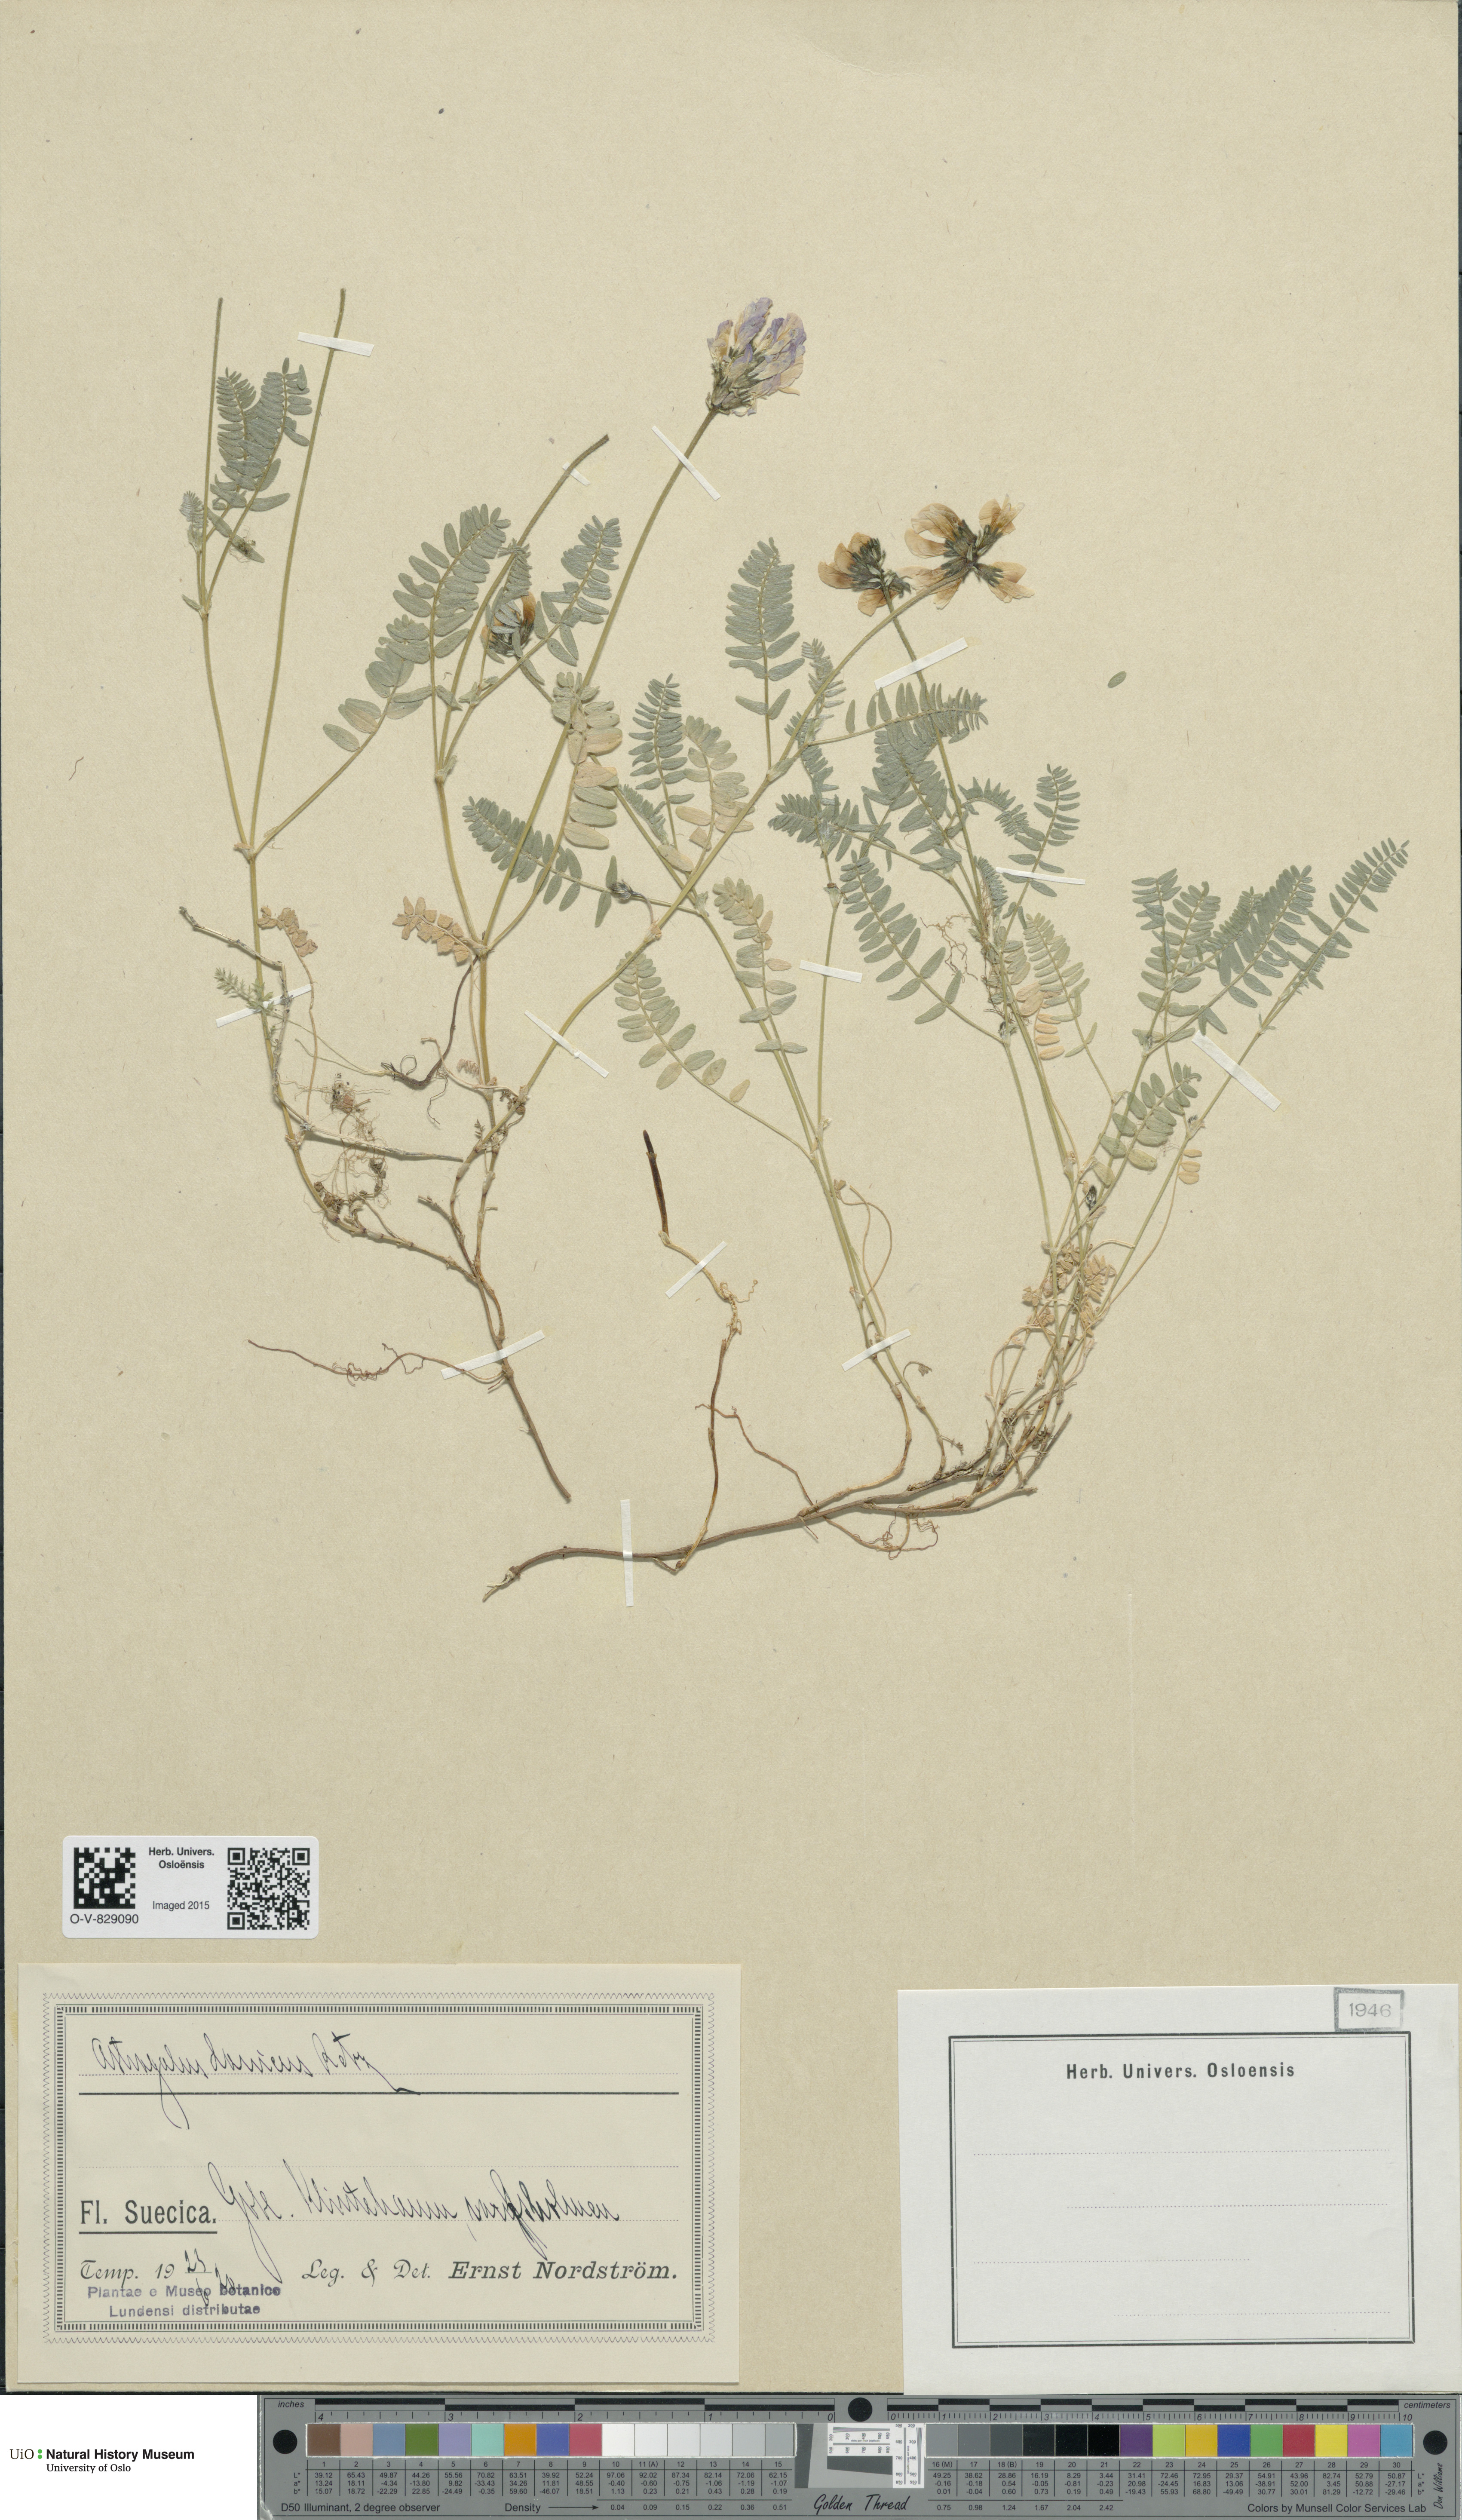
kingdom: Plantae
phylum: Tracheophyta
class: Magnoliopsida
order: Fabales
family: Fabaceae
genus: Astragalus
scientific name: Astragalus danicus
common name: Purple milk-vetch
